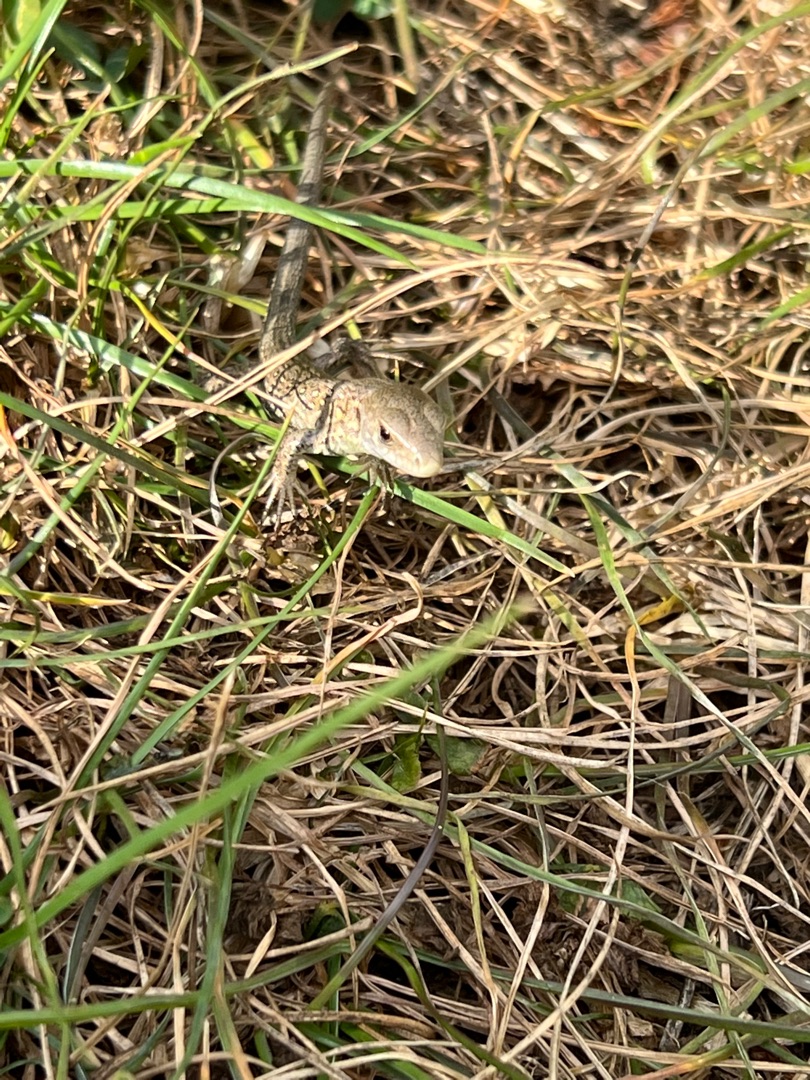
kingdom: Animalia
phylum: Chordata
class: Squamata
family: Lacertidae
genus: Lacerta
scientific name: Lacerta agilis
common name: Markfirben
